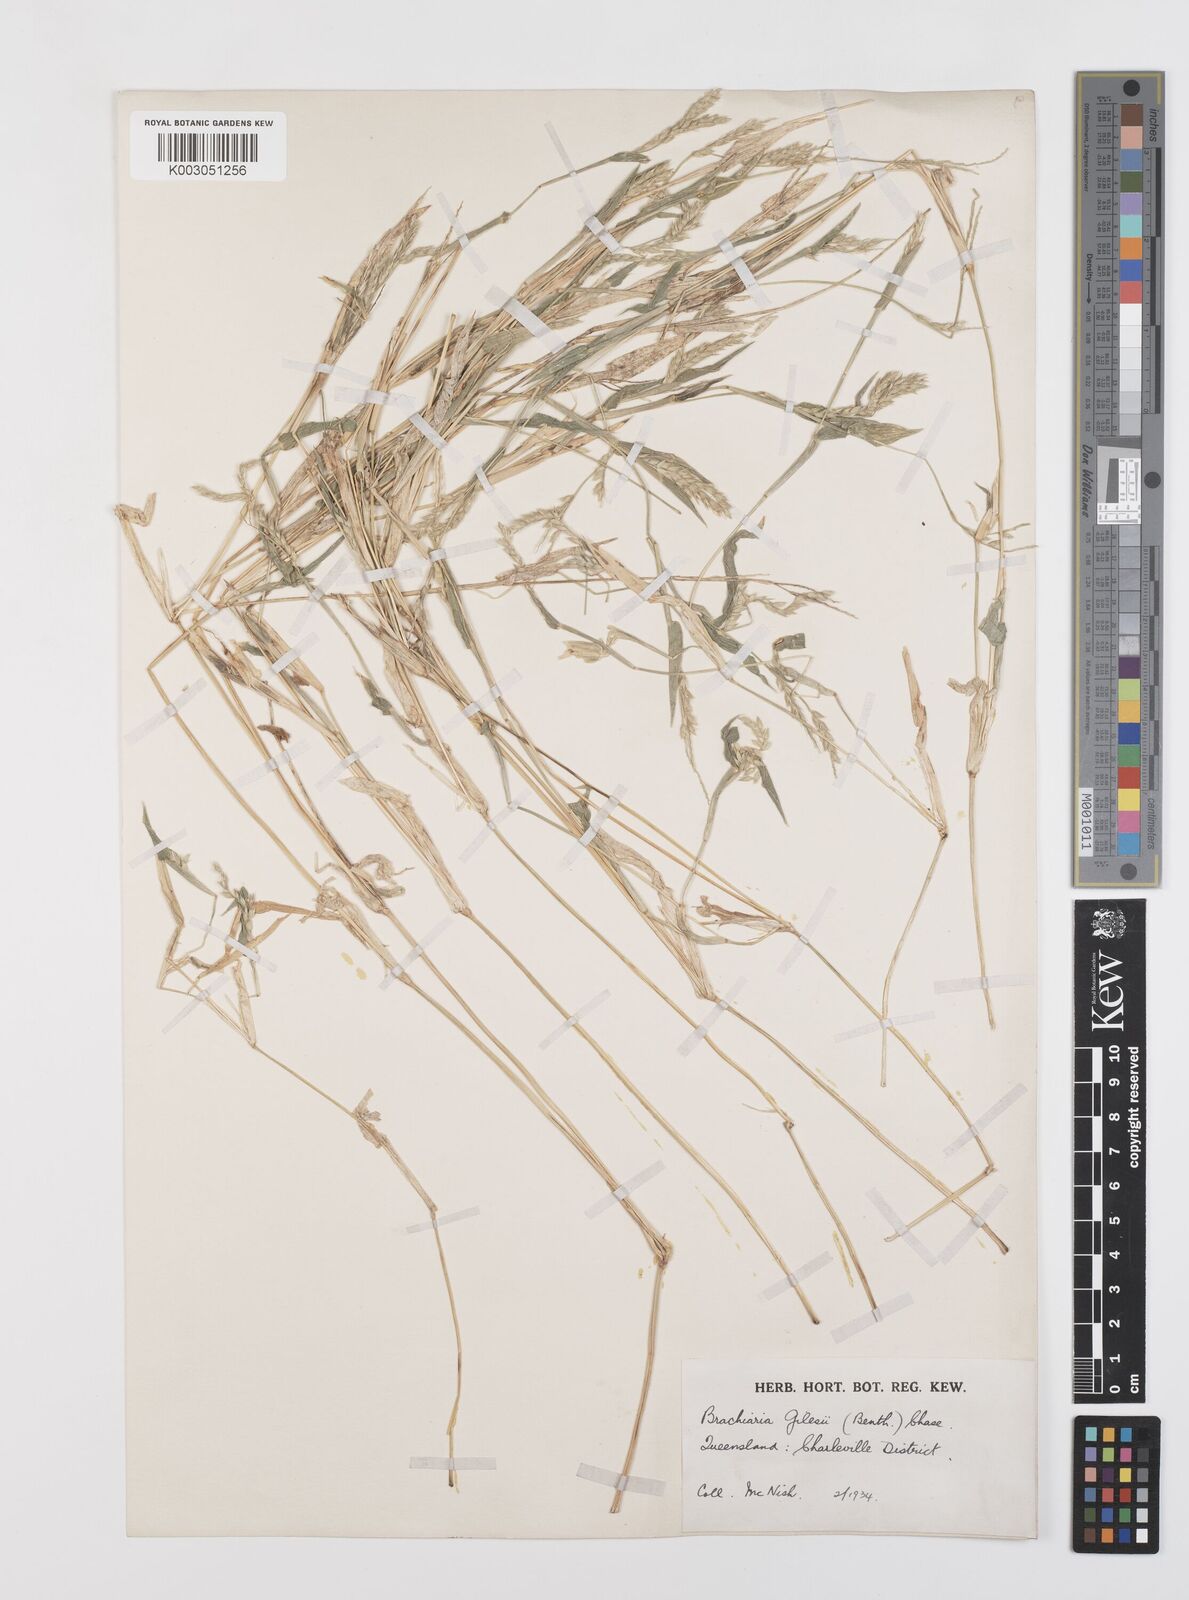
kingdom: Plantae
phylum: Tracheophyta
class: Liliopsida
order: Poales
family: Poaceae
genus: Urochloa
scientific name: Urochloa gilesii
